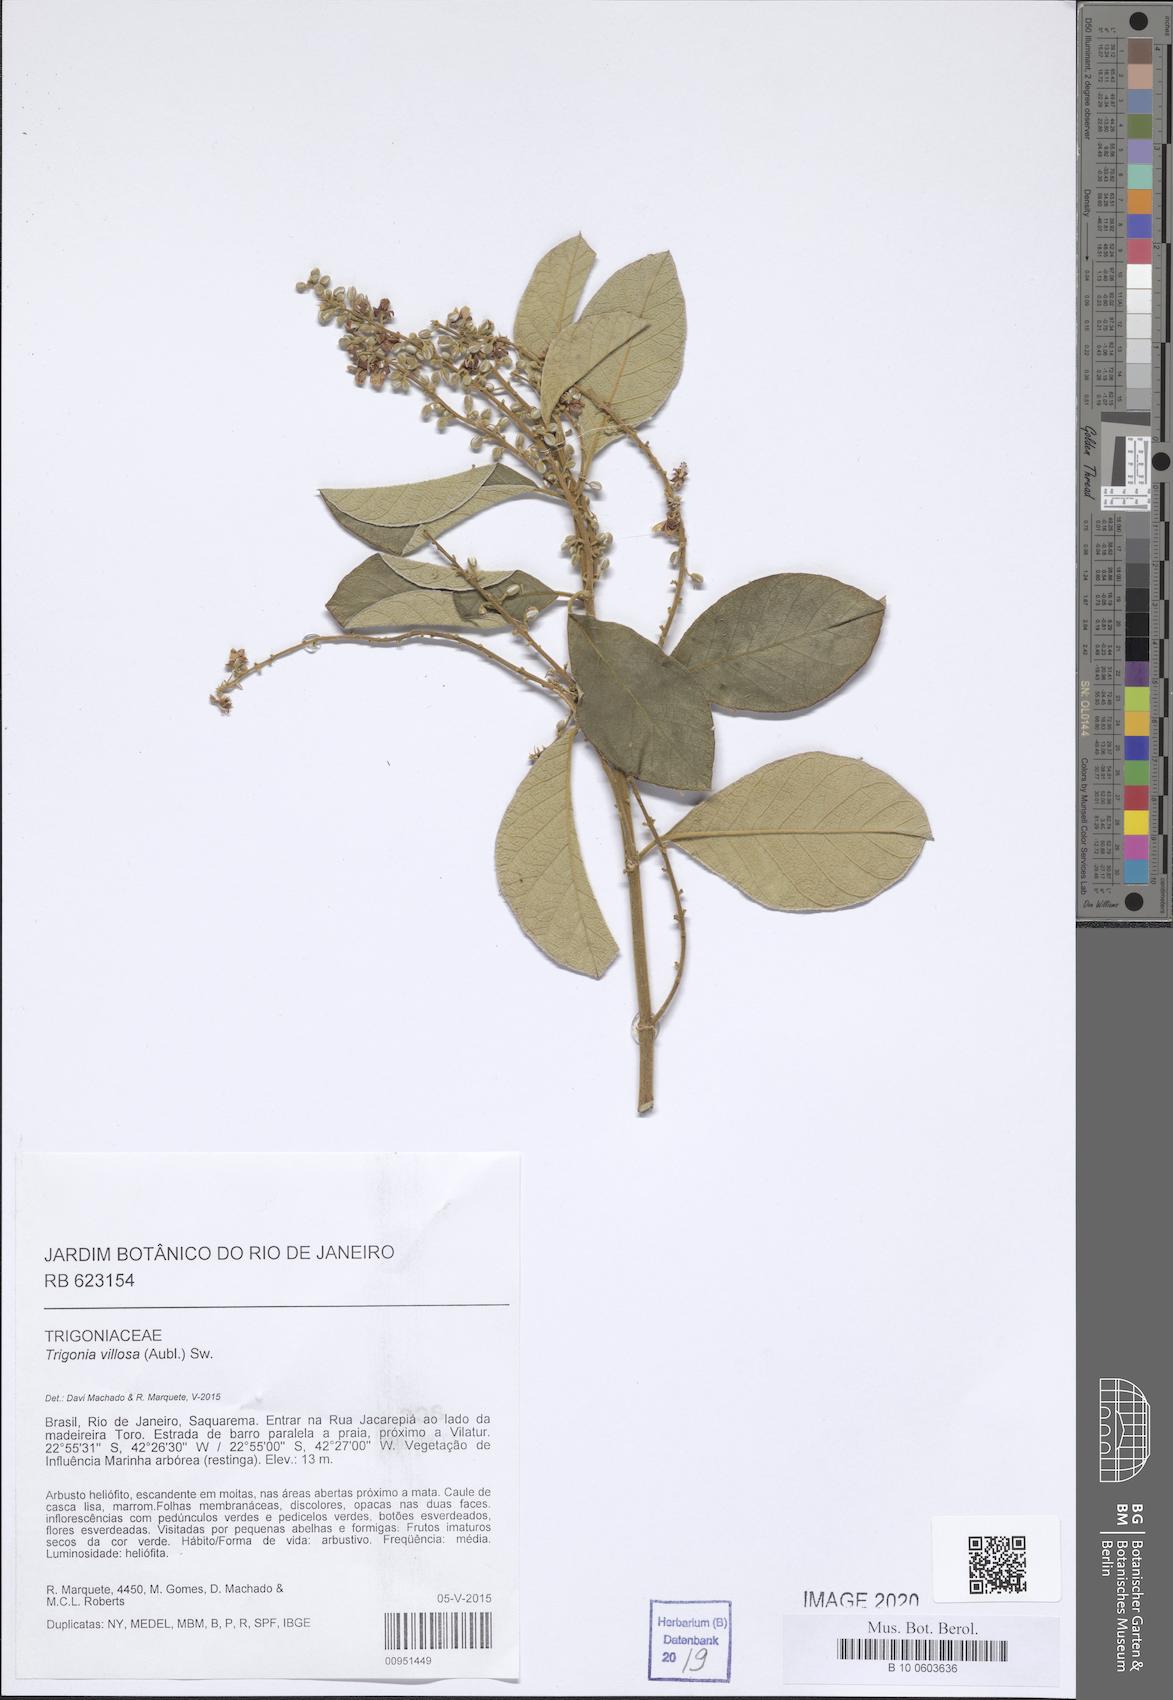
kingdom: Plantae
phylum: Tracheophyta
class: Magnoliopsida
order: Malpighiales
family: Trigoniaceae
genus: Trigonia
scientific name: Trigonia villosa
